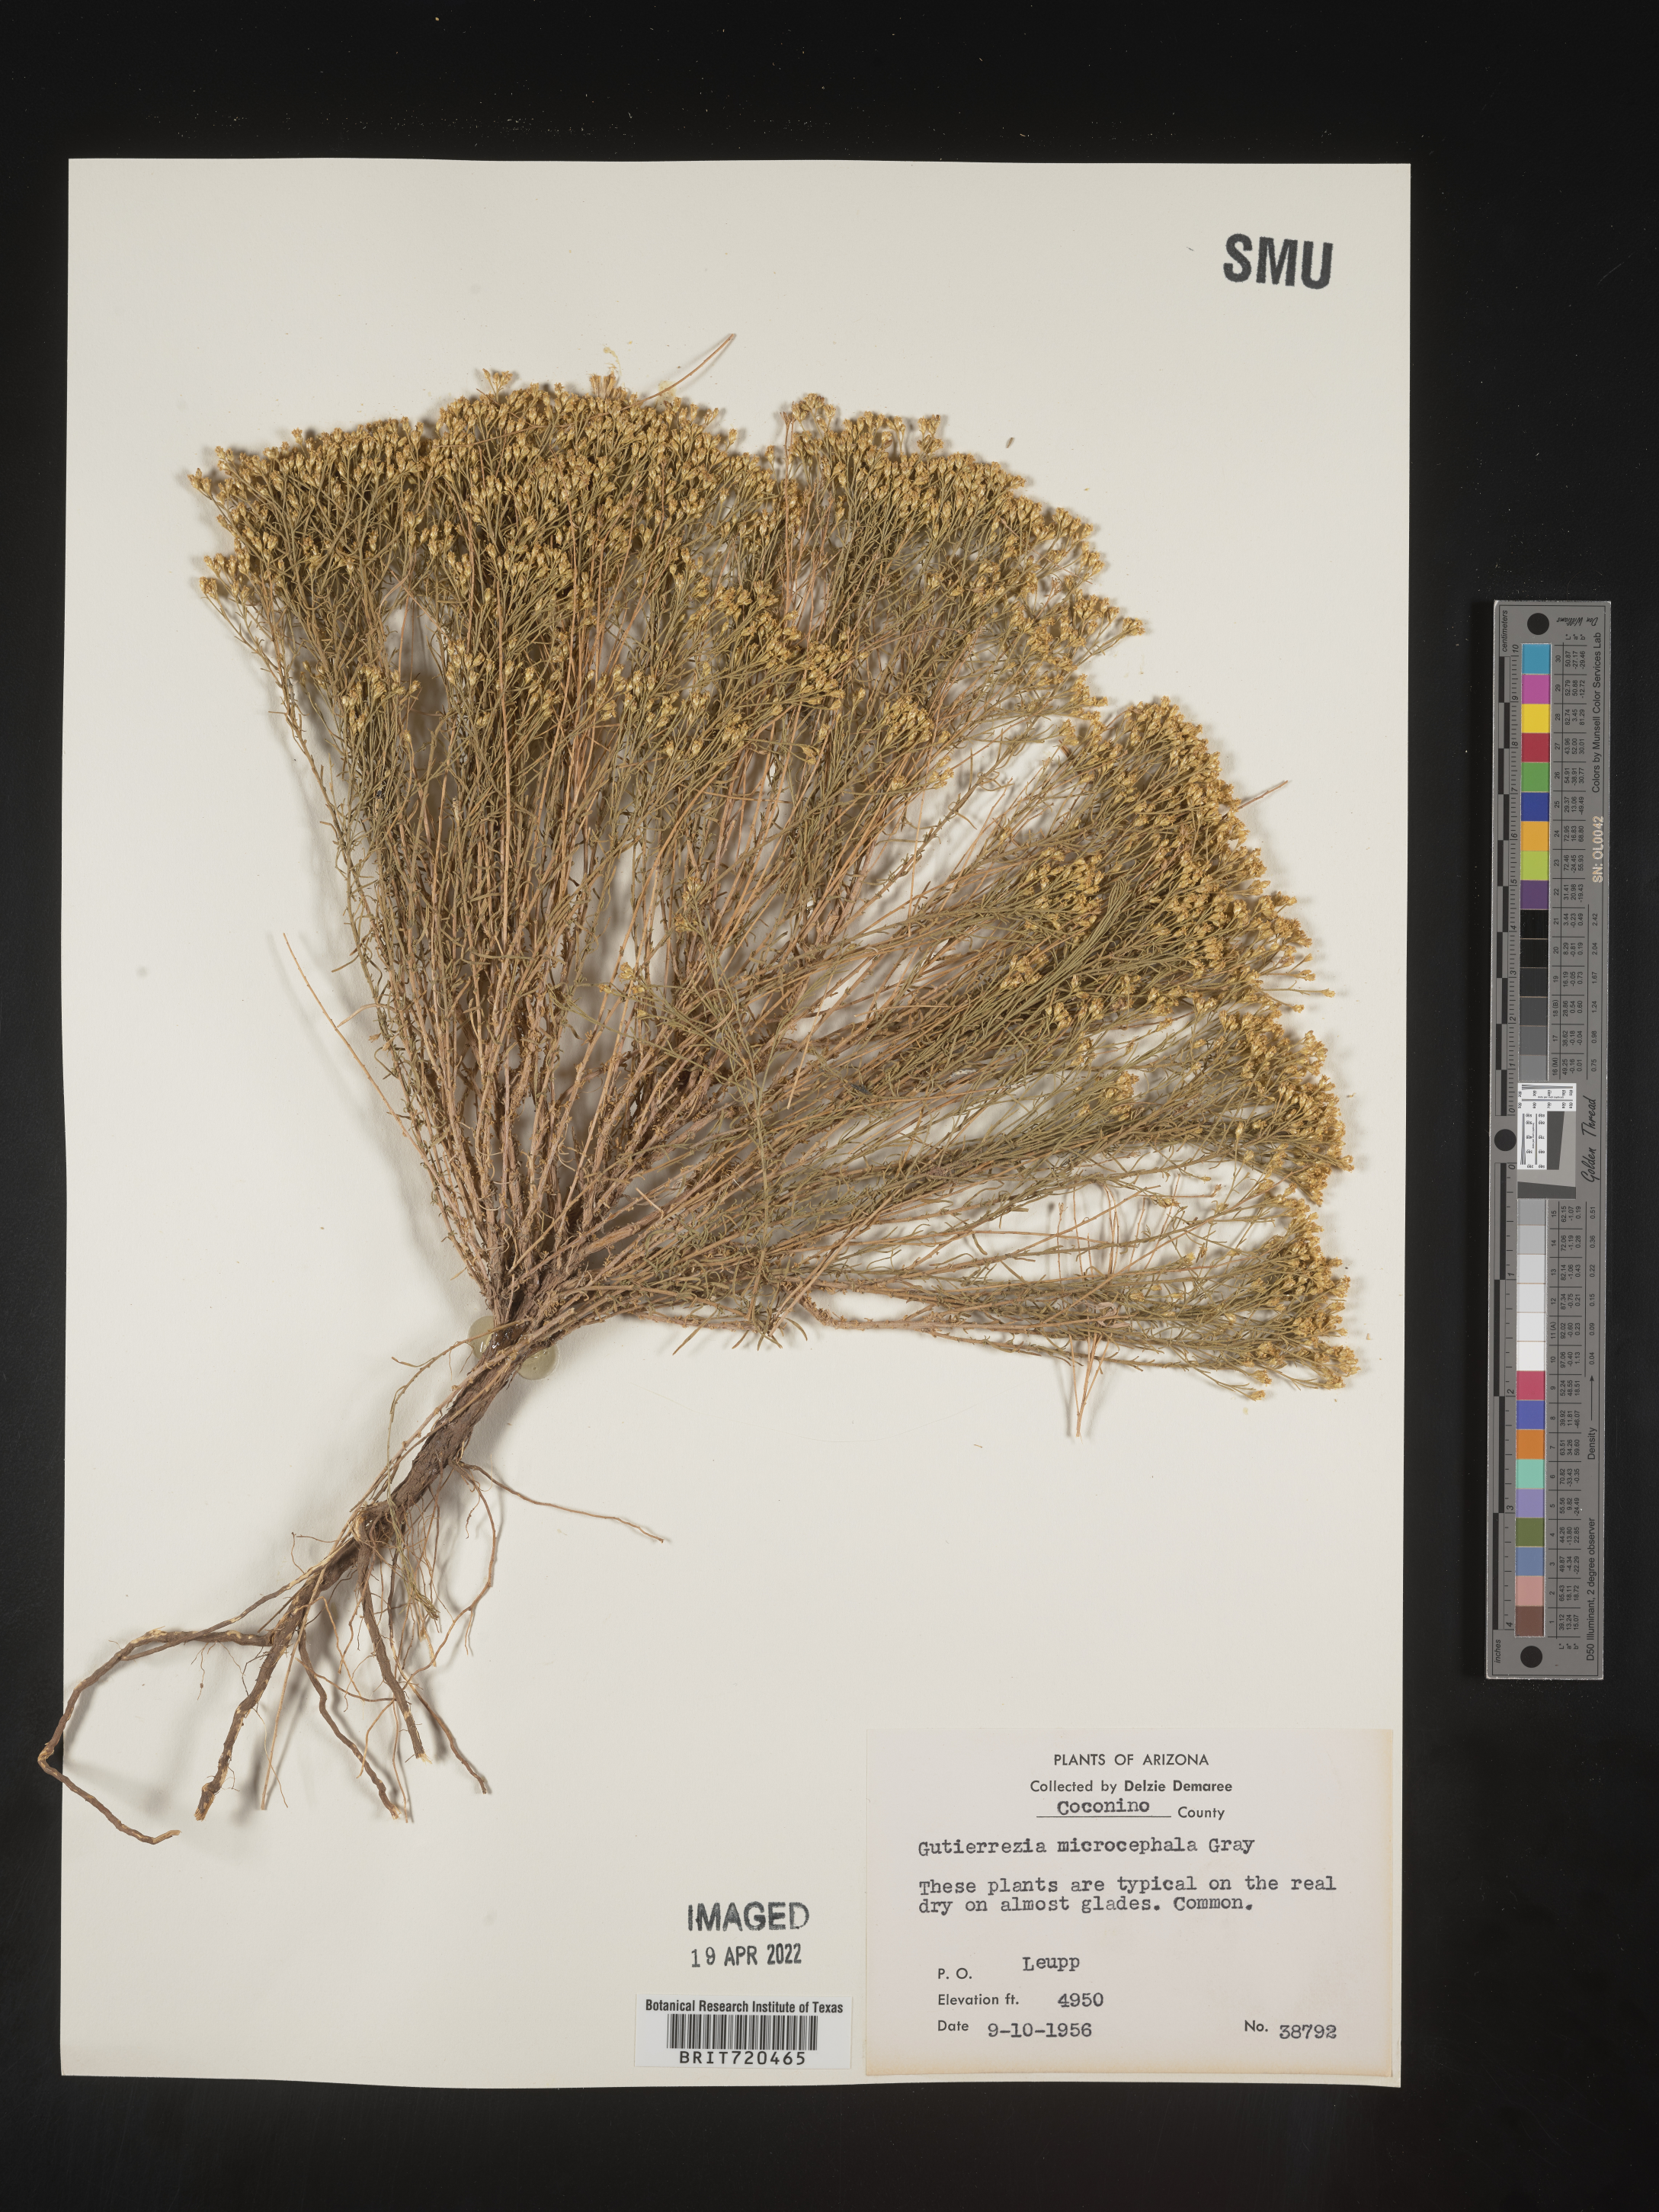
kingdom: Plantae
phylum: Tracheophyta
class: Magnoliopsida
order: Asterales
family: Asteraceae
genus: Gutierrezia
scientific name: Gutierrezia microcephala
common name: Thread snakeweed
